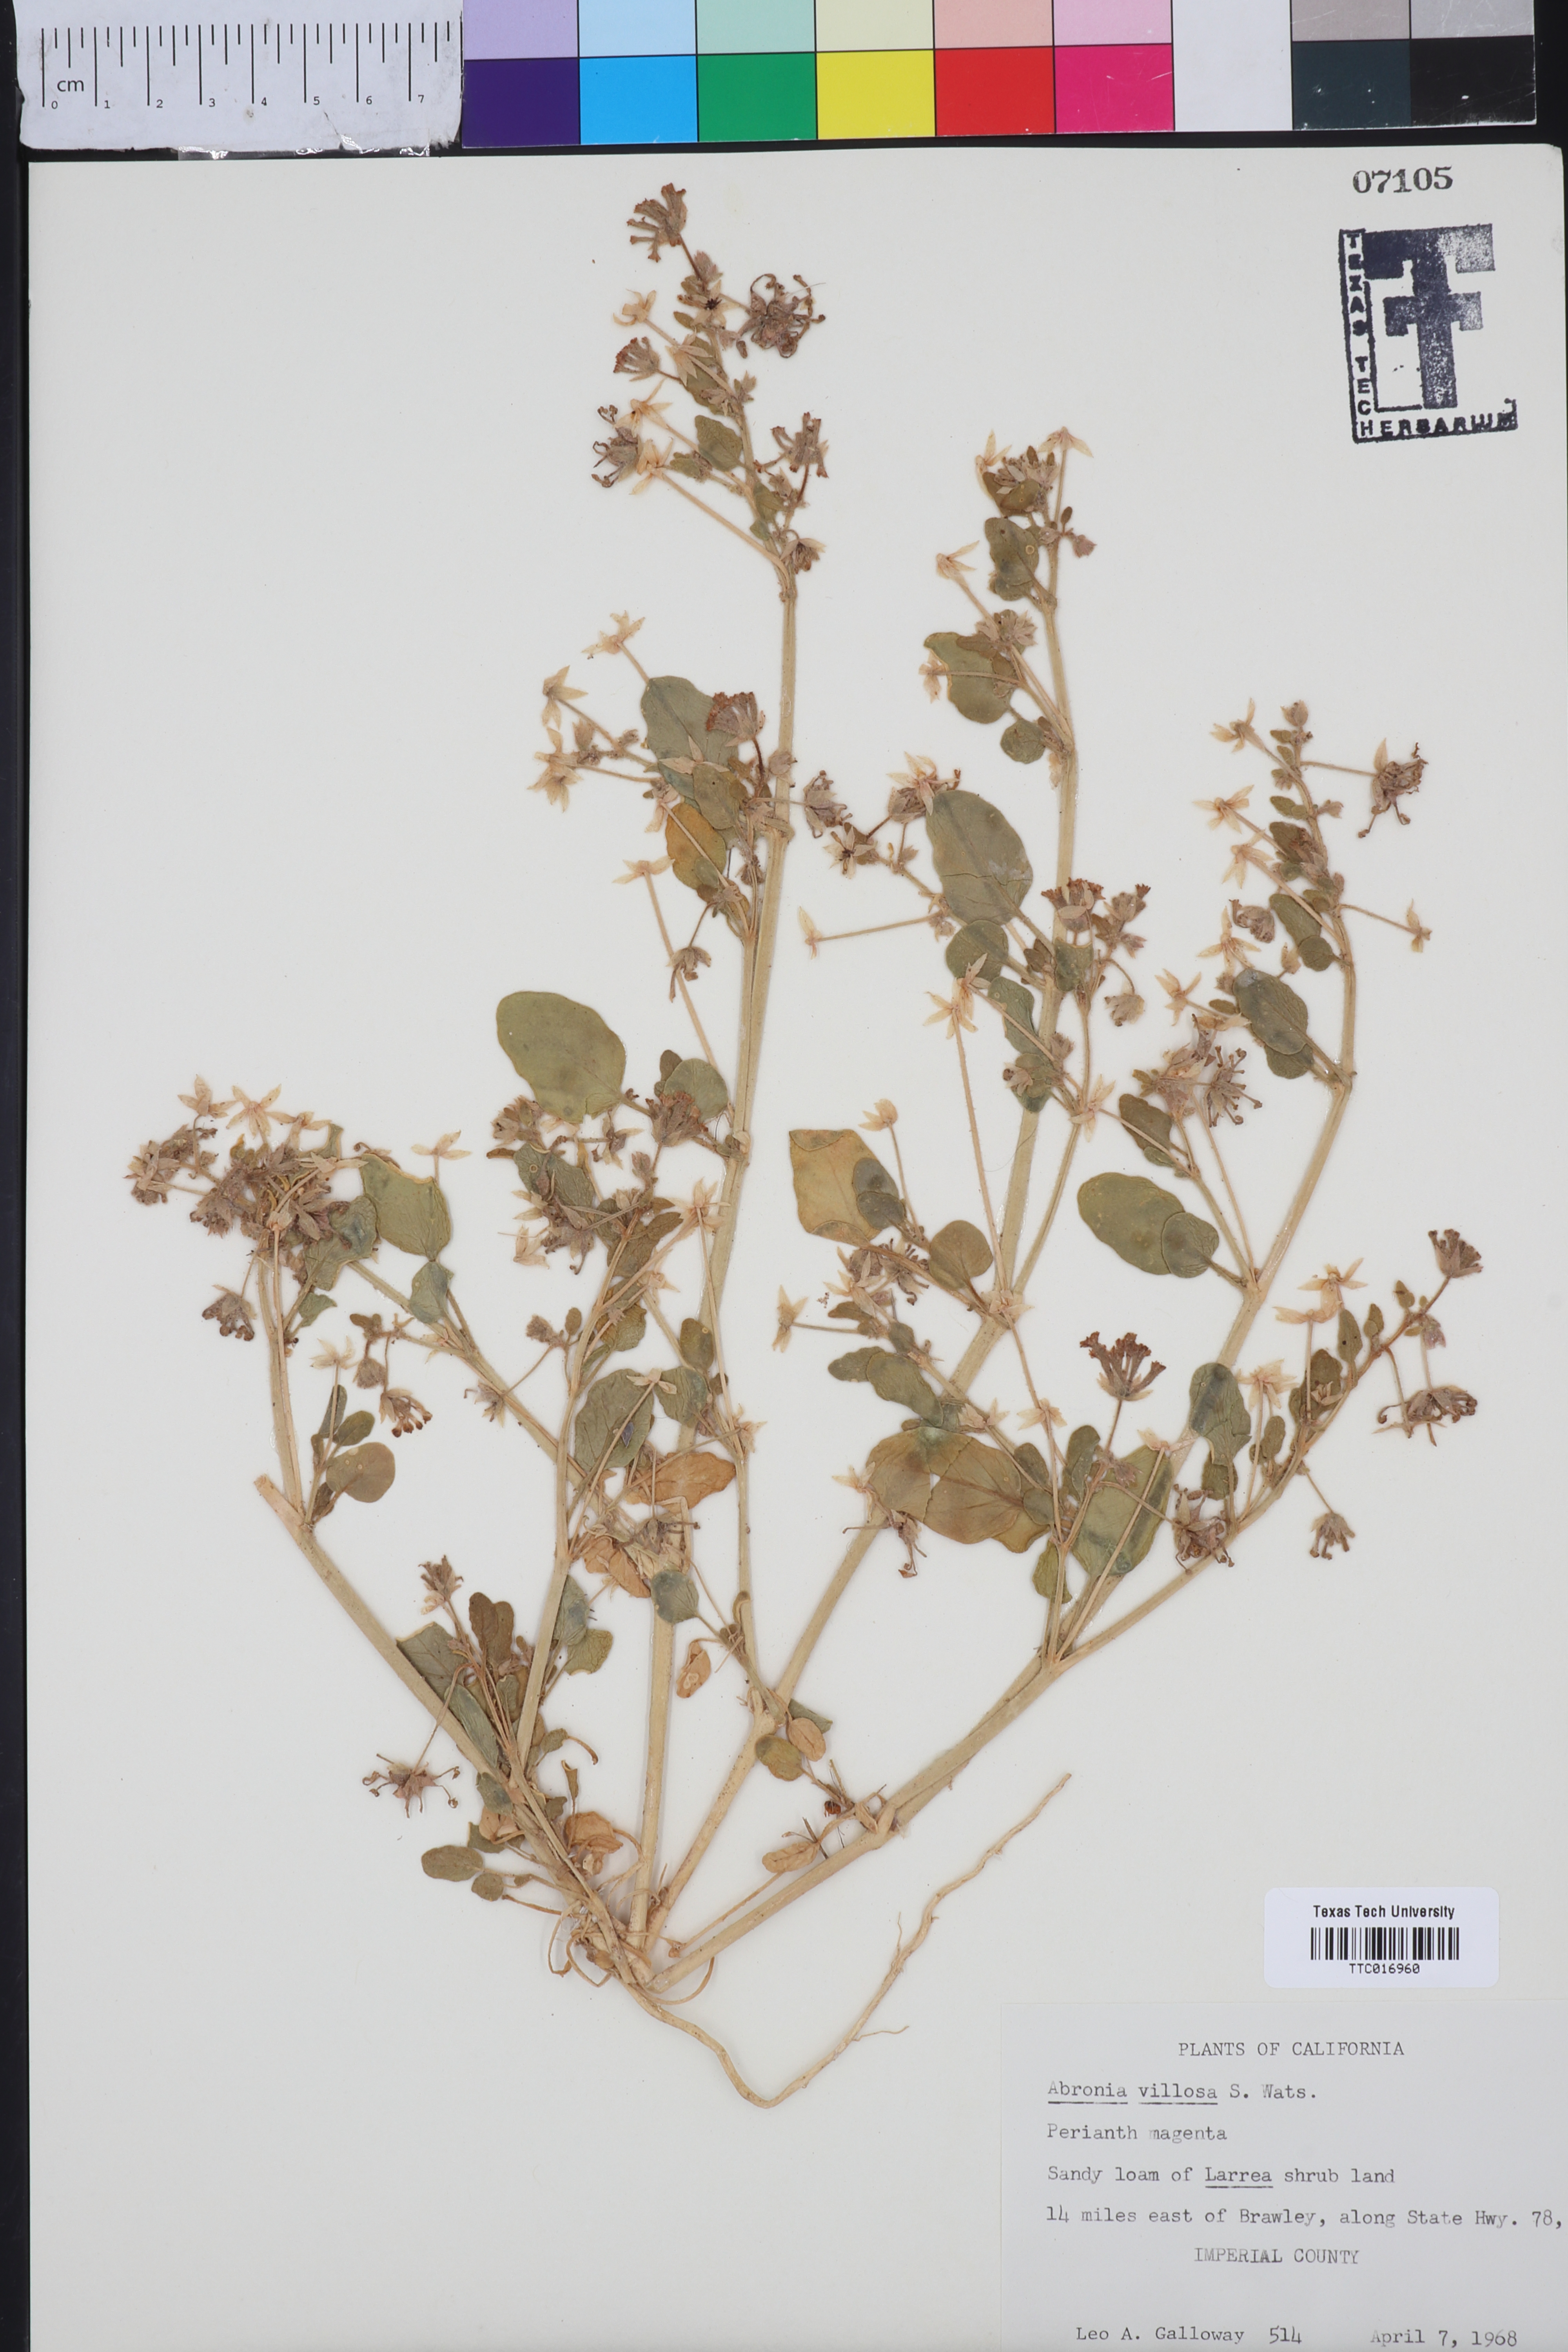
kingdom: Plantae
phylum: Tracheophyta
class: Magnoliopsida
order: Caryophyllales
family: Nyctaginaceae
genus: Abronia
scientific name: Abronia villosa
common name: Desert sand-verbena
